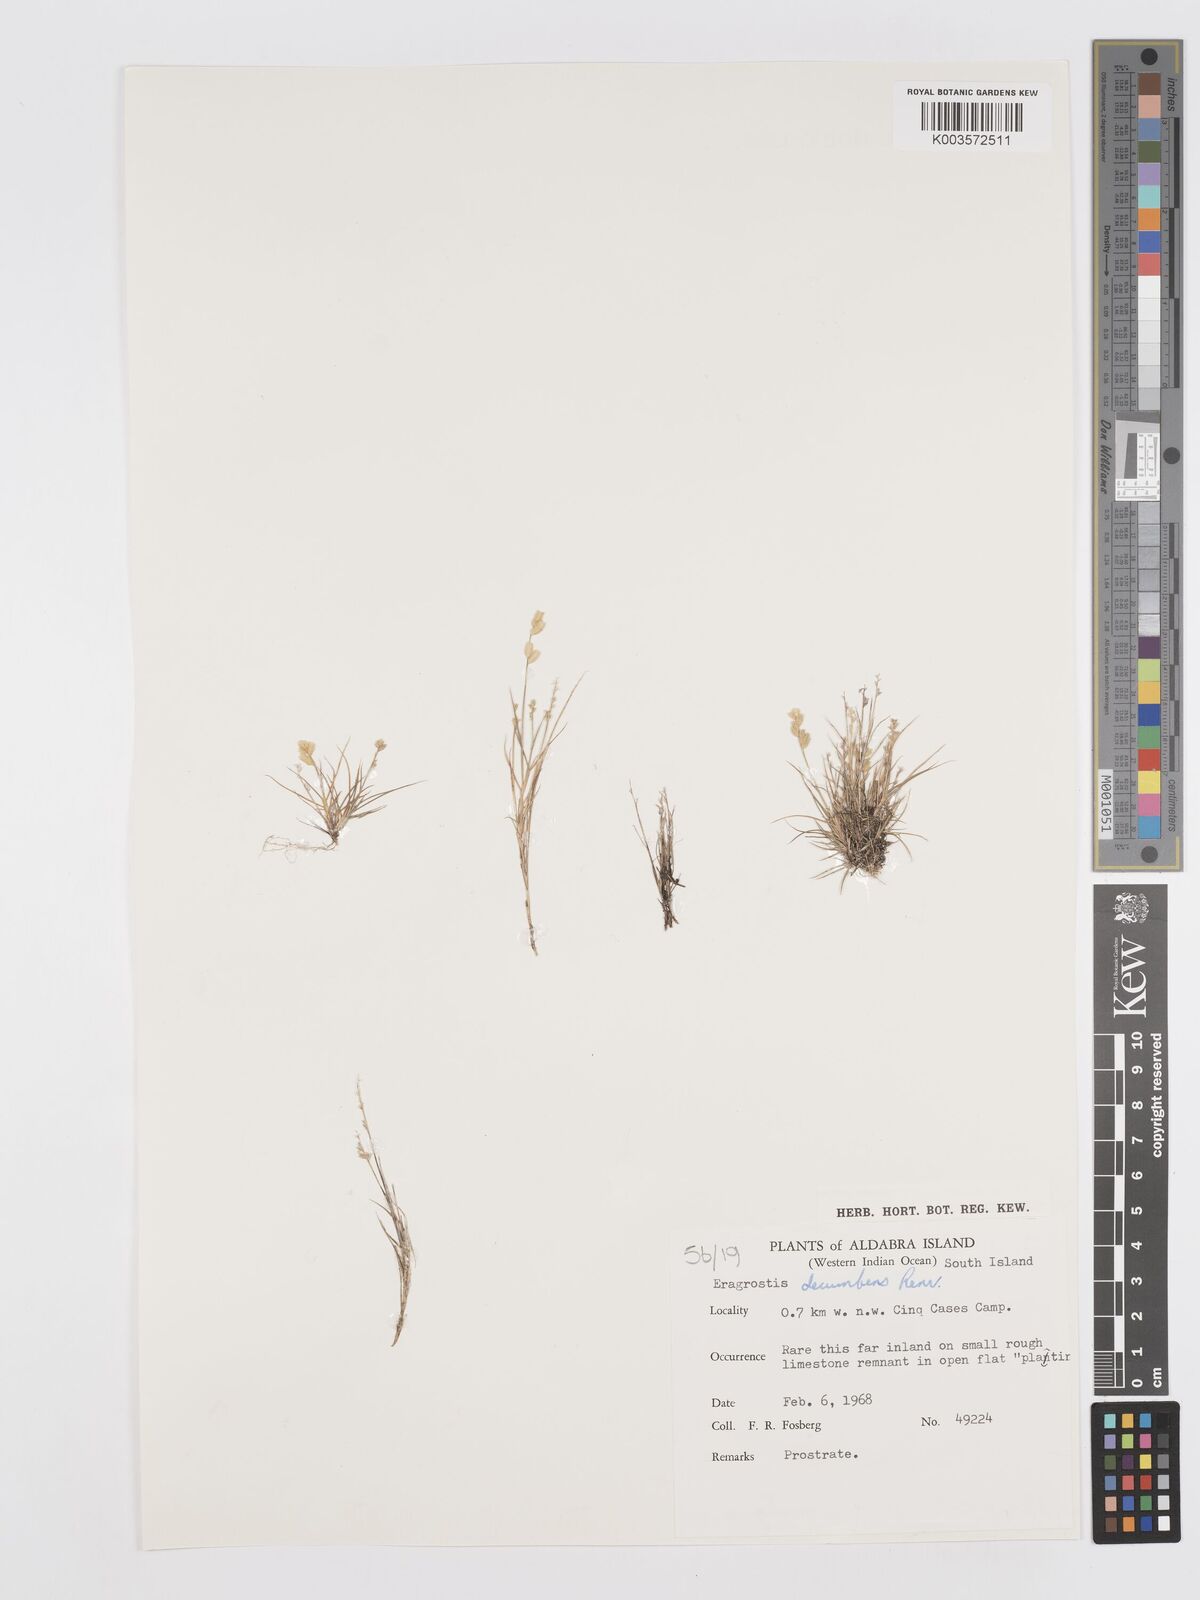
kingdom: Plantae
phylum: Tracheophyta
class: Liliopsida
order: Poales
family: Poaceae
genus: Eragrostis
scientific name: Eragrostis decumbens
